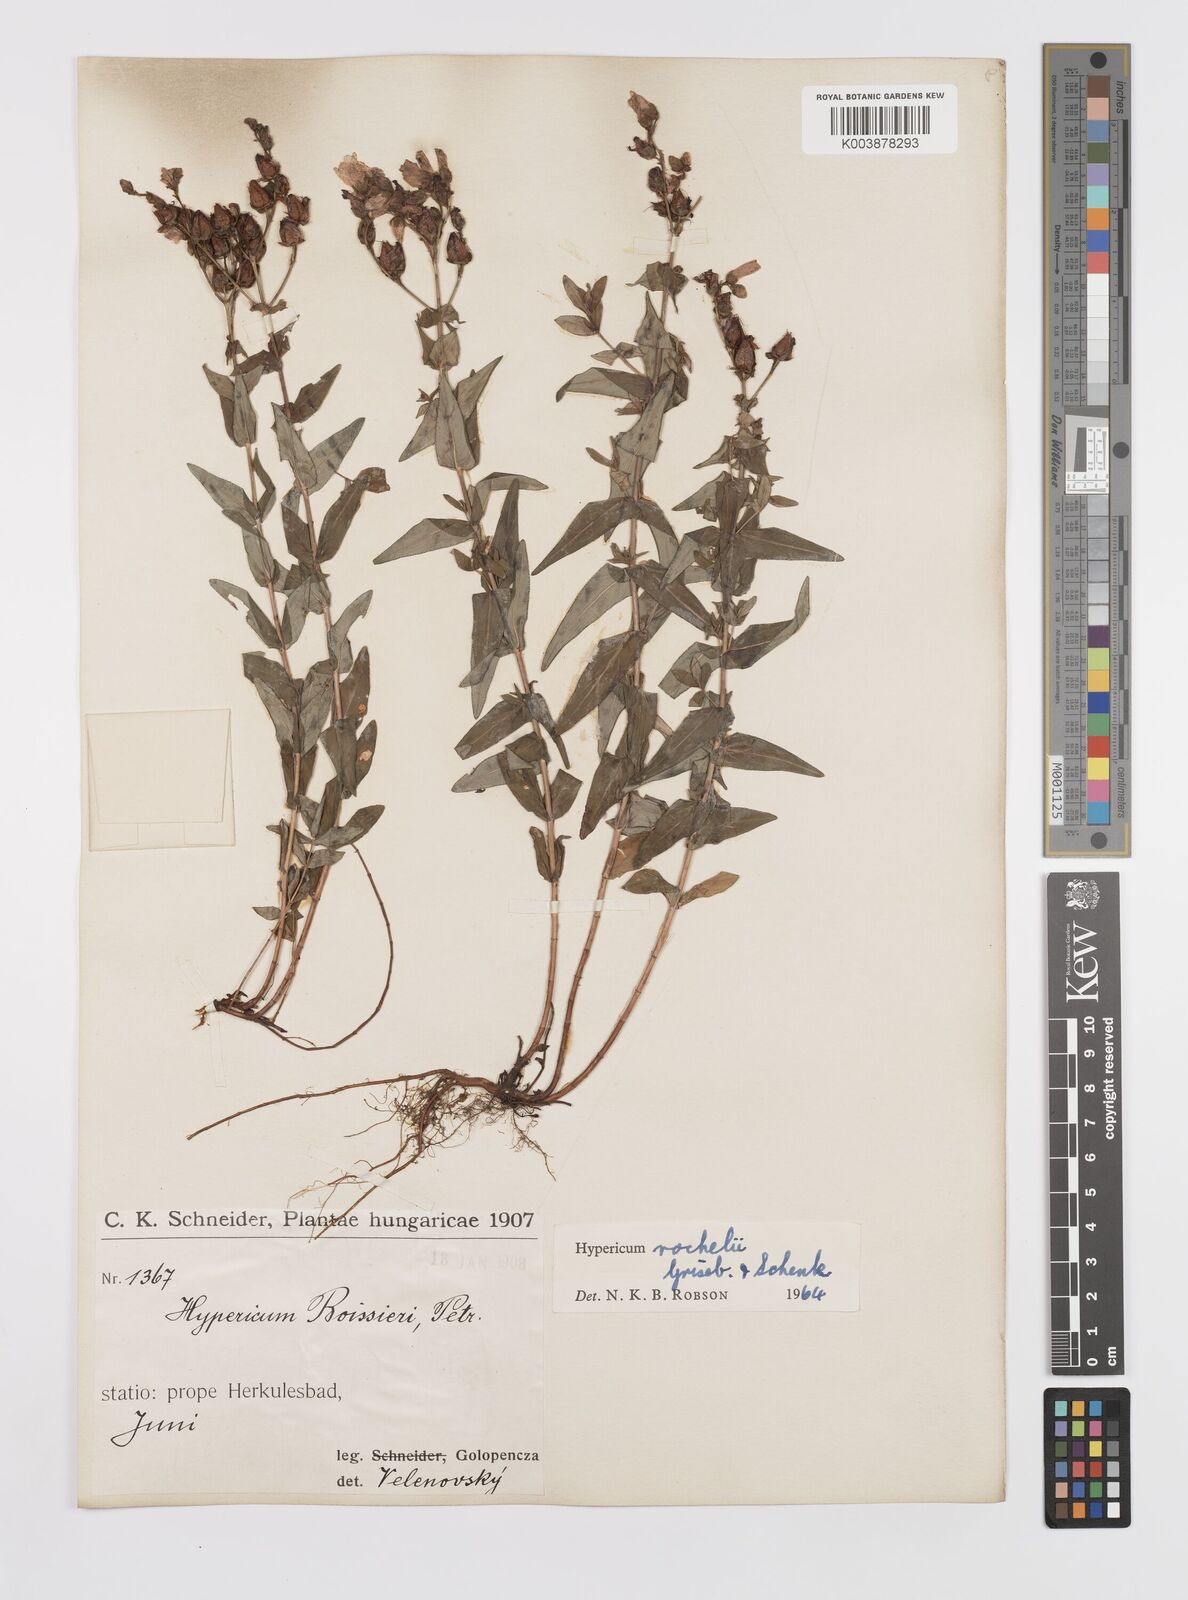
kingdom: Plantae
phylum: Tracheophyta
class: Magnoliopsida
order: Malpighiales
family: Hypericaceae
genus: Hypericum
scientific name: Hypericum rochelii
